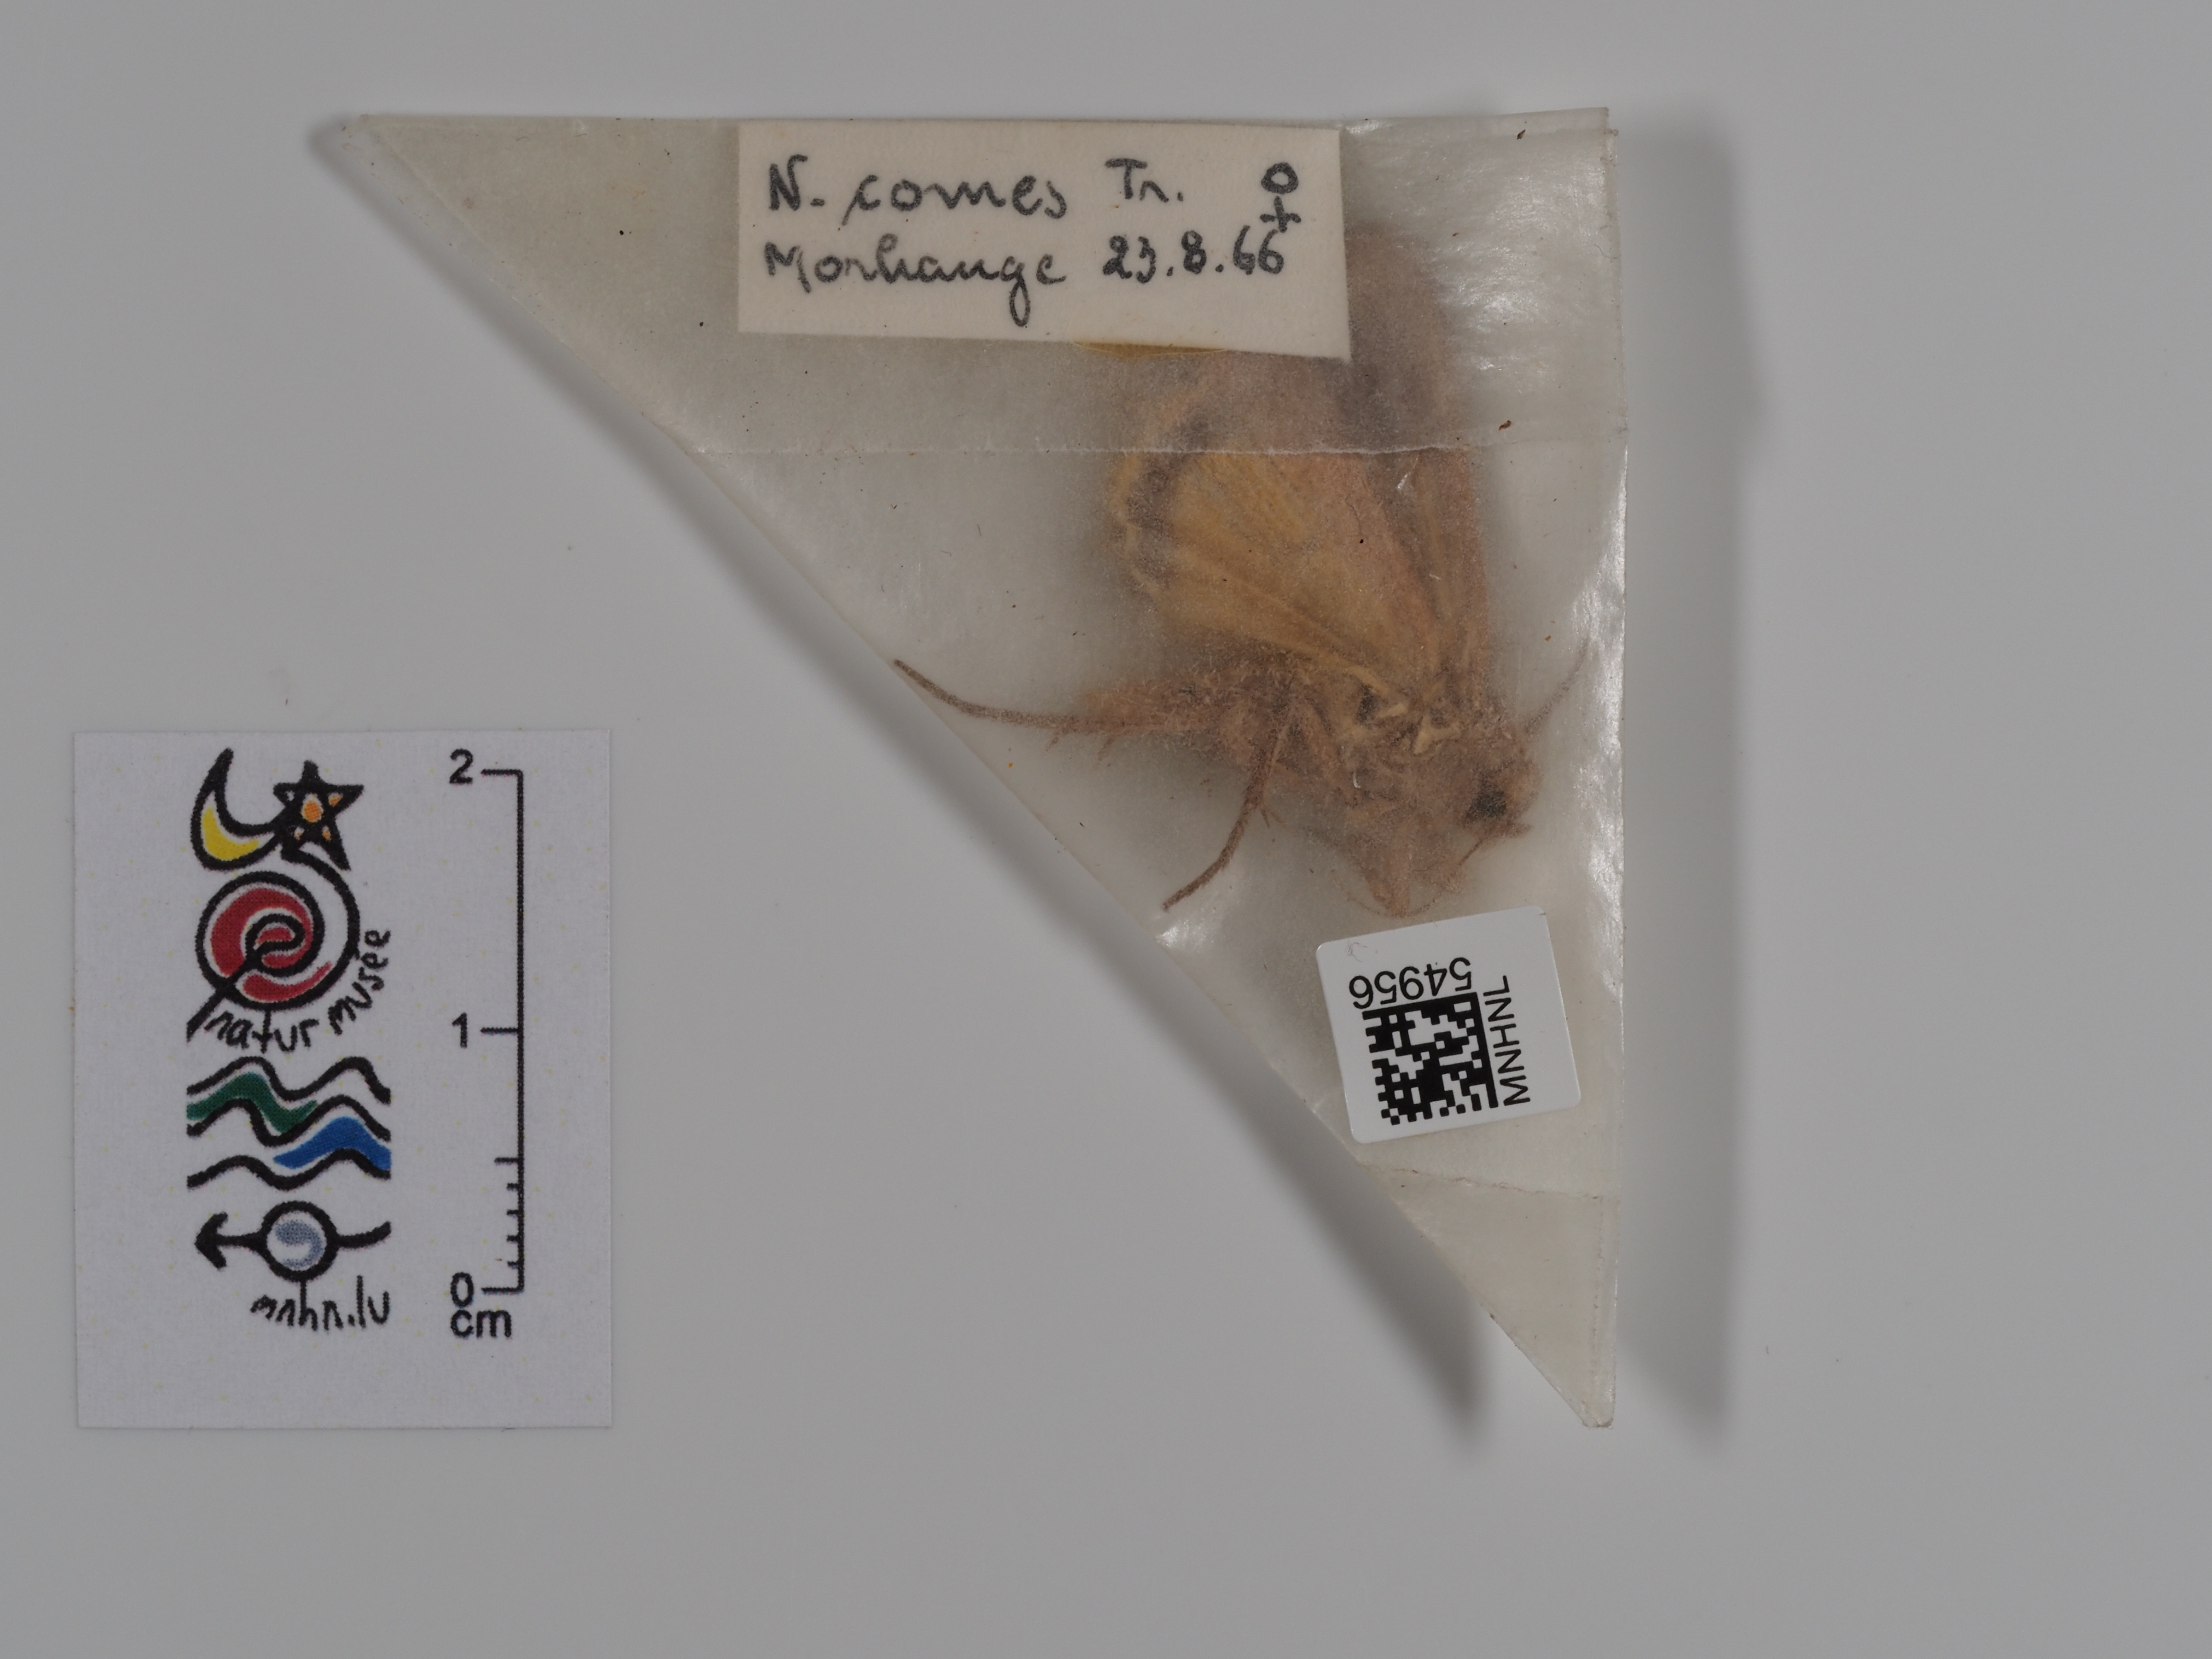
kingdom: Animalia
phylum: Arthropoda
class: Insecta
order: Lepidoptera
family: Noctuidae
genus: Noctua
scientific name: Noctua comes
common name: Lesser yellow underwing
